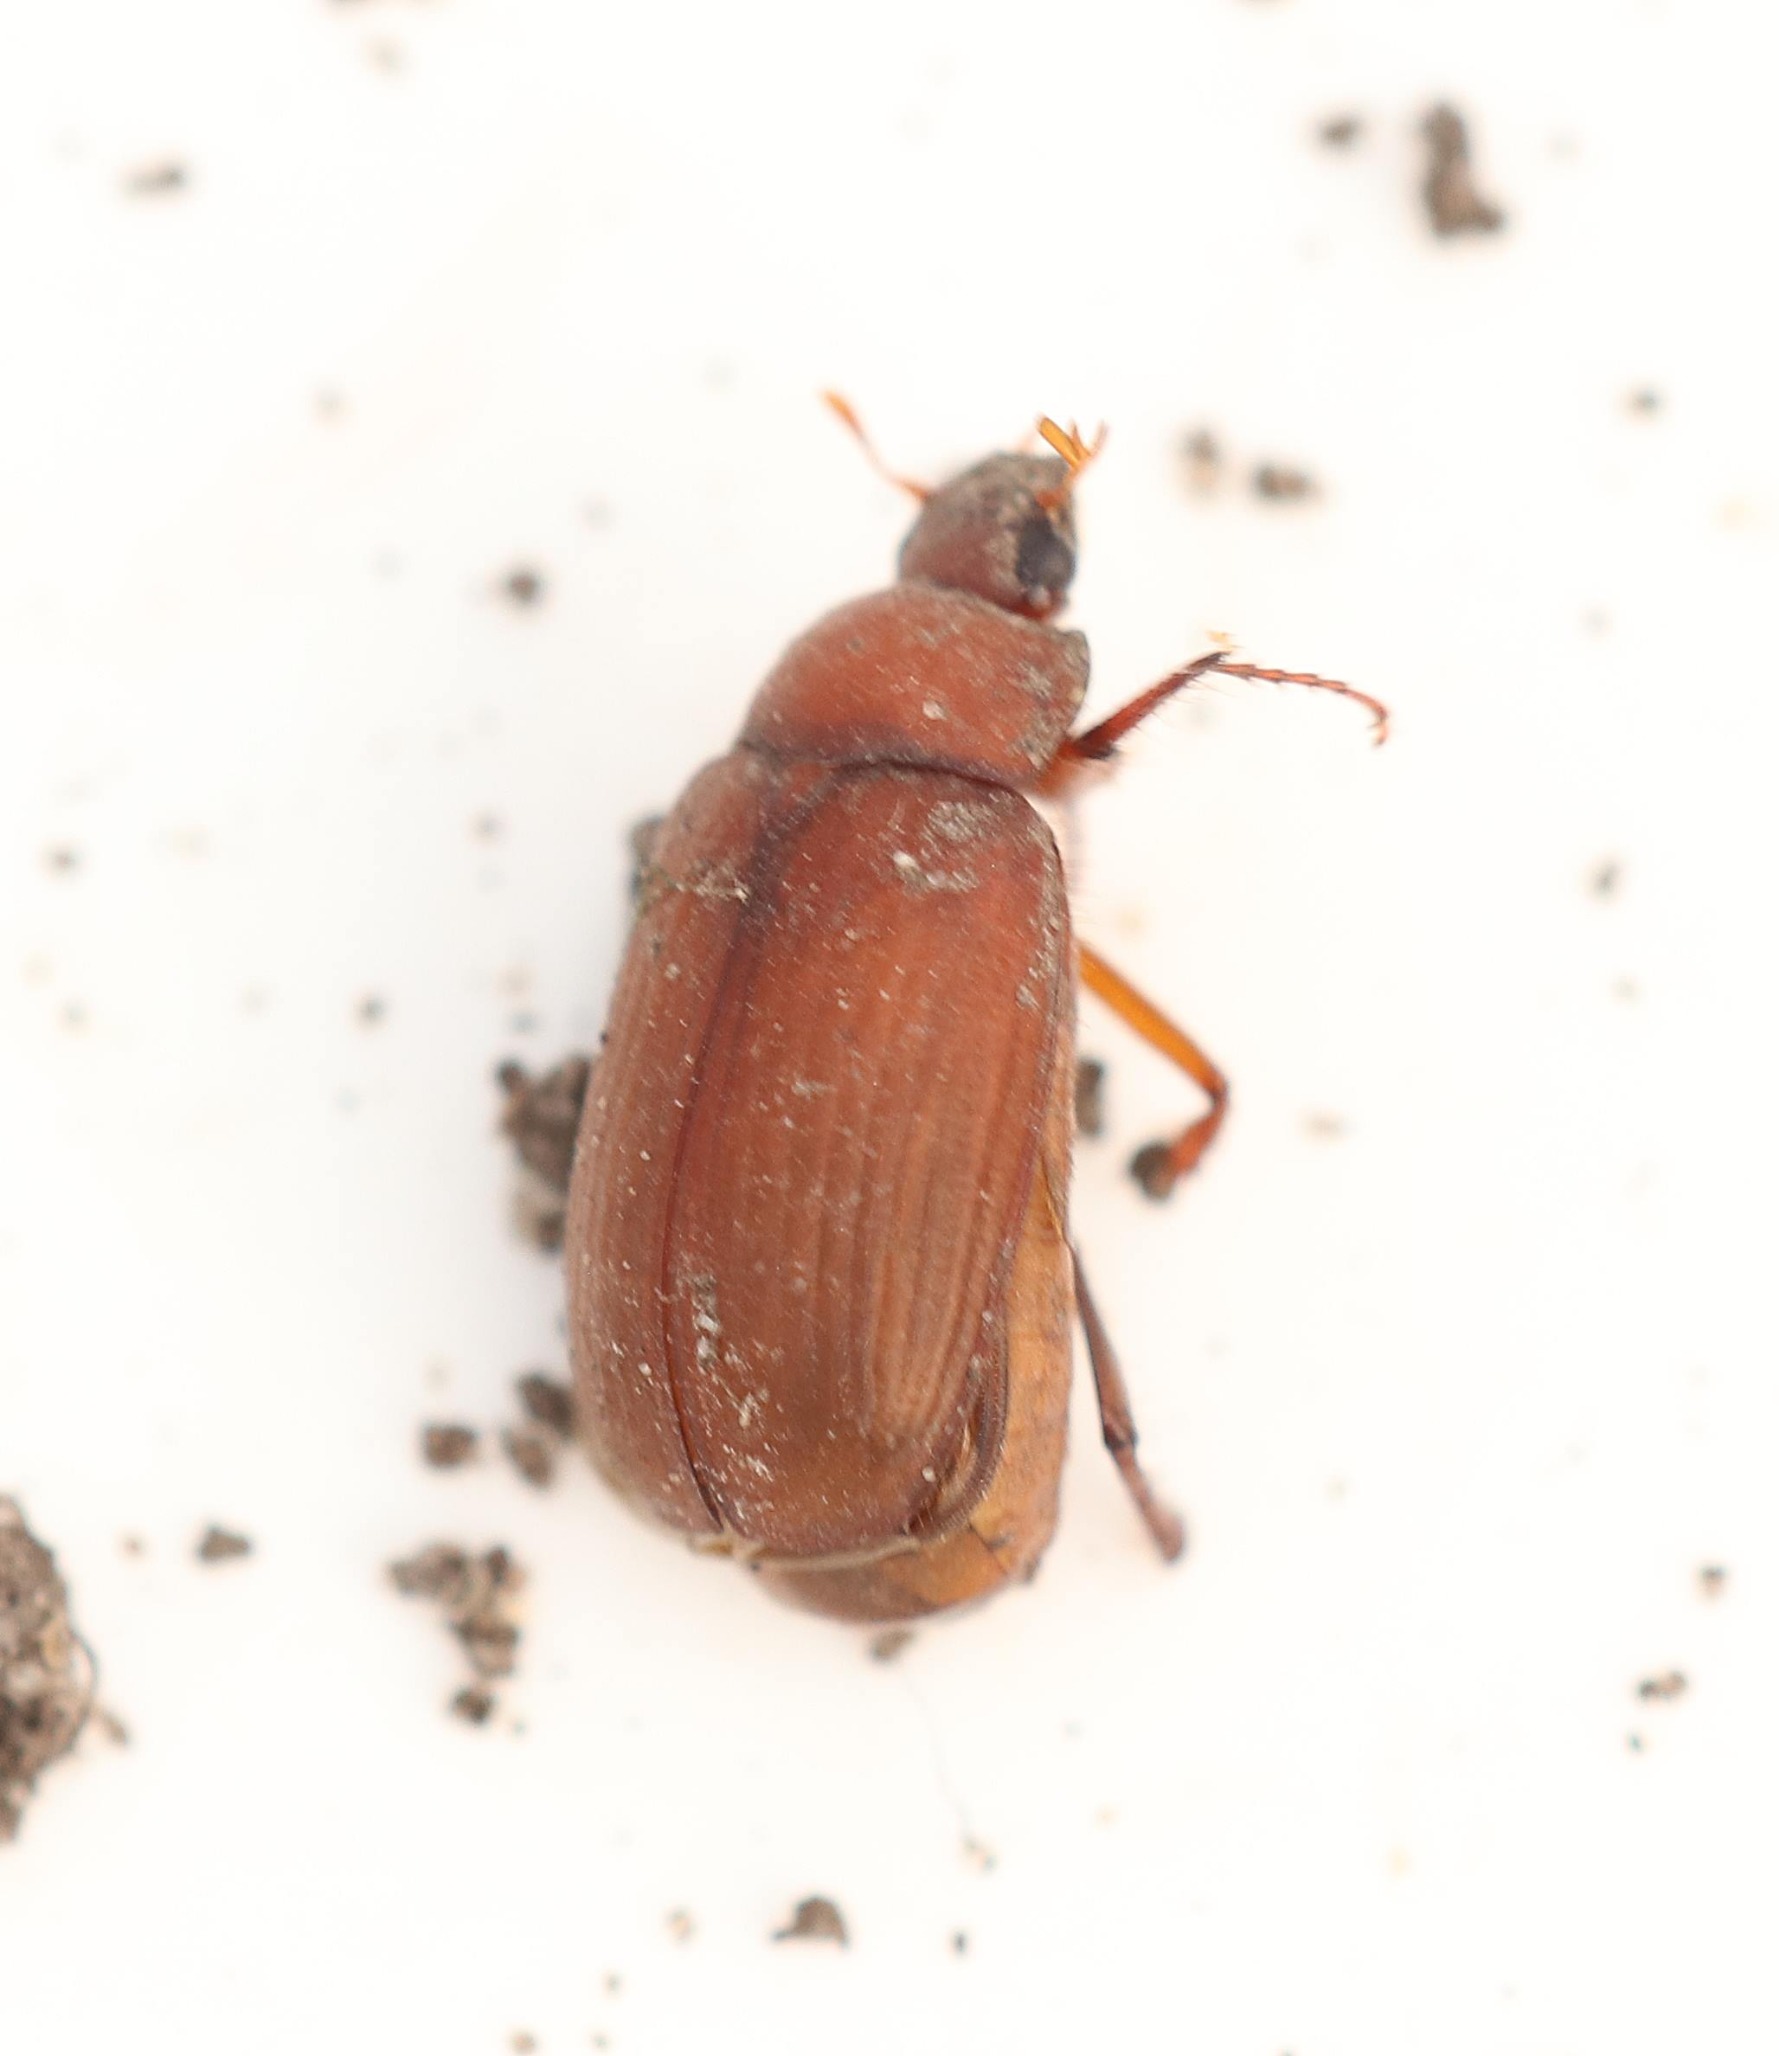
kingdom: Animalia
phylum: Arthropoda
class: Insecta
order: Coleoptera
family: Scarabaeidae
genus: Serica
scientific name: Serica brunnea
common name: Natoldenborre
